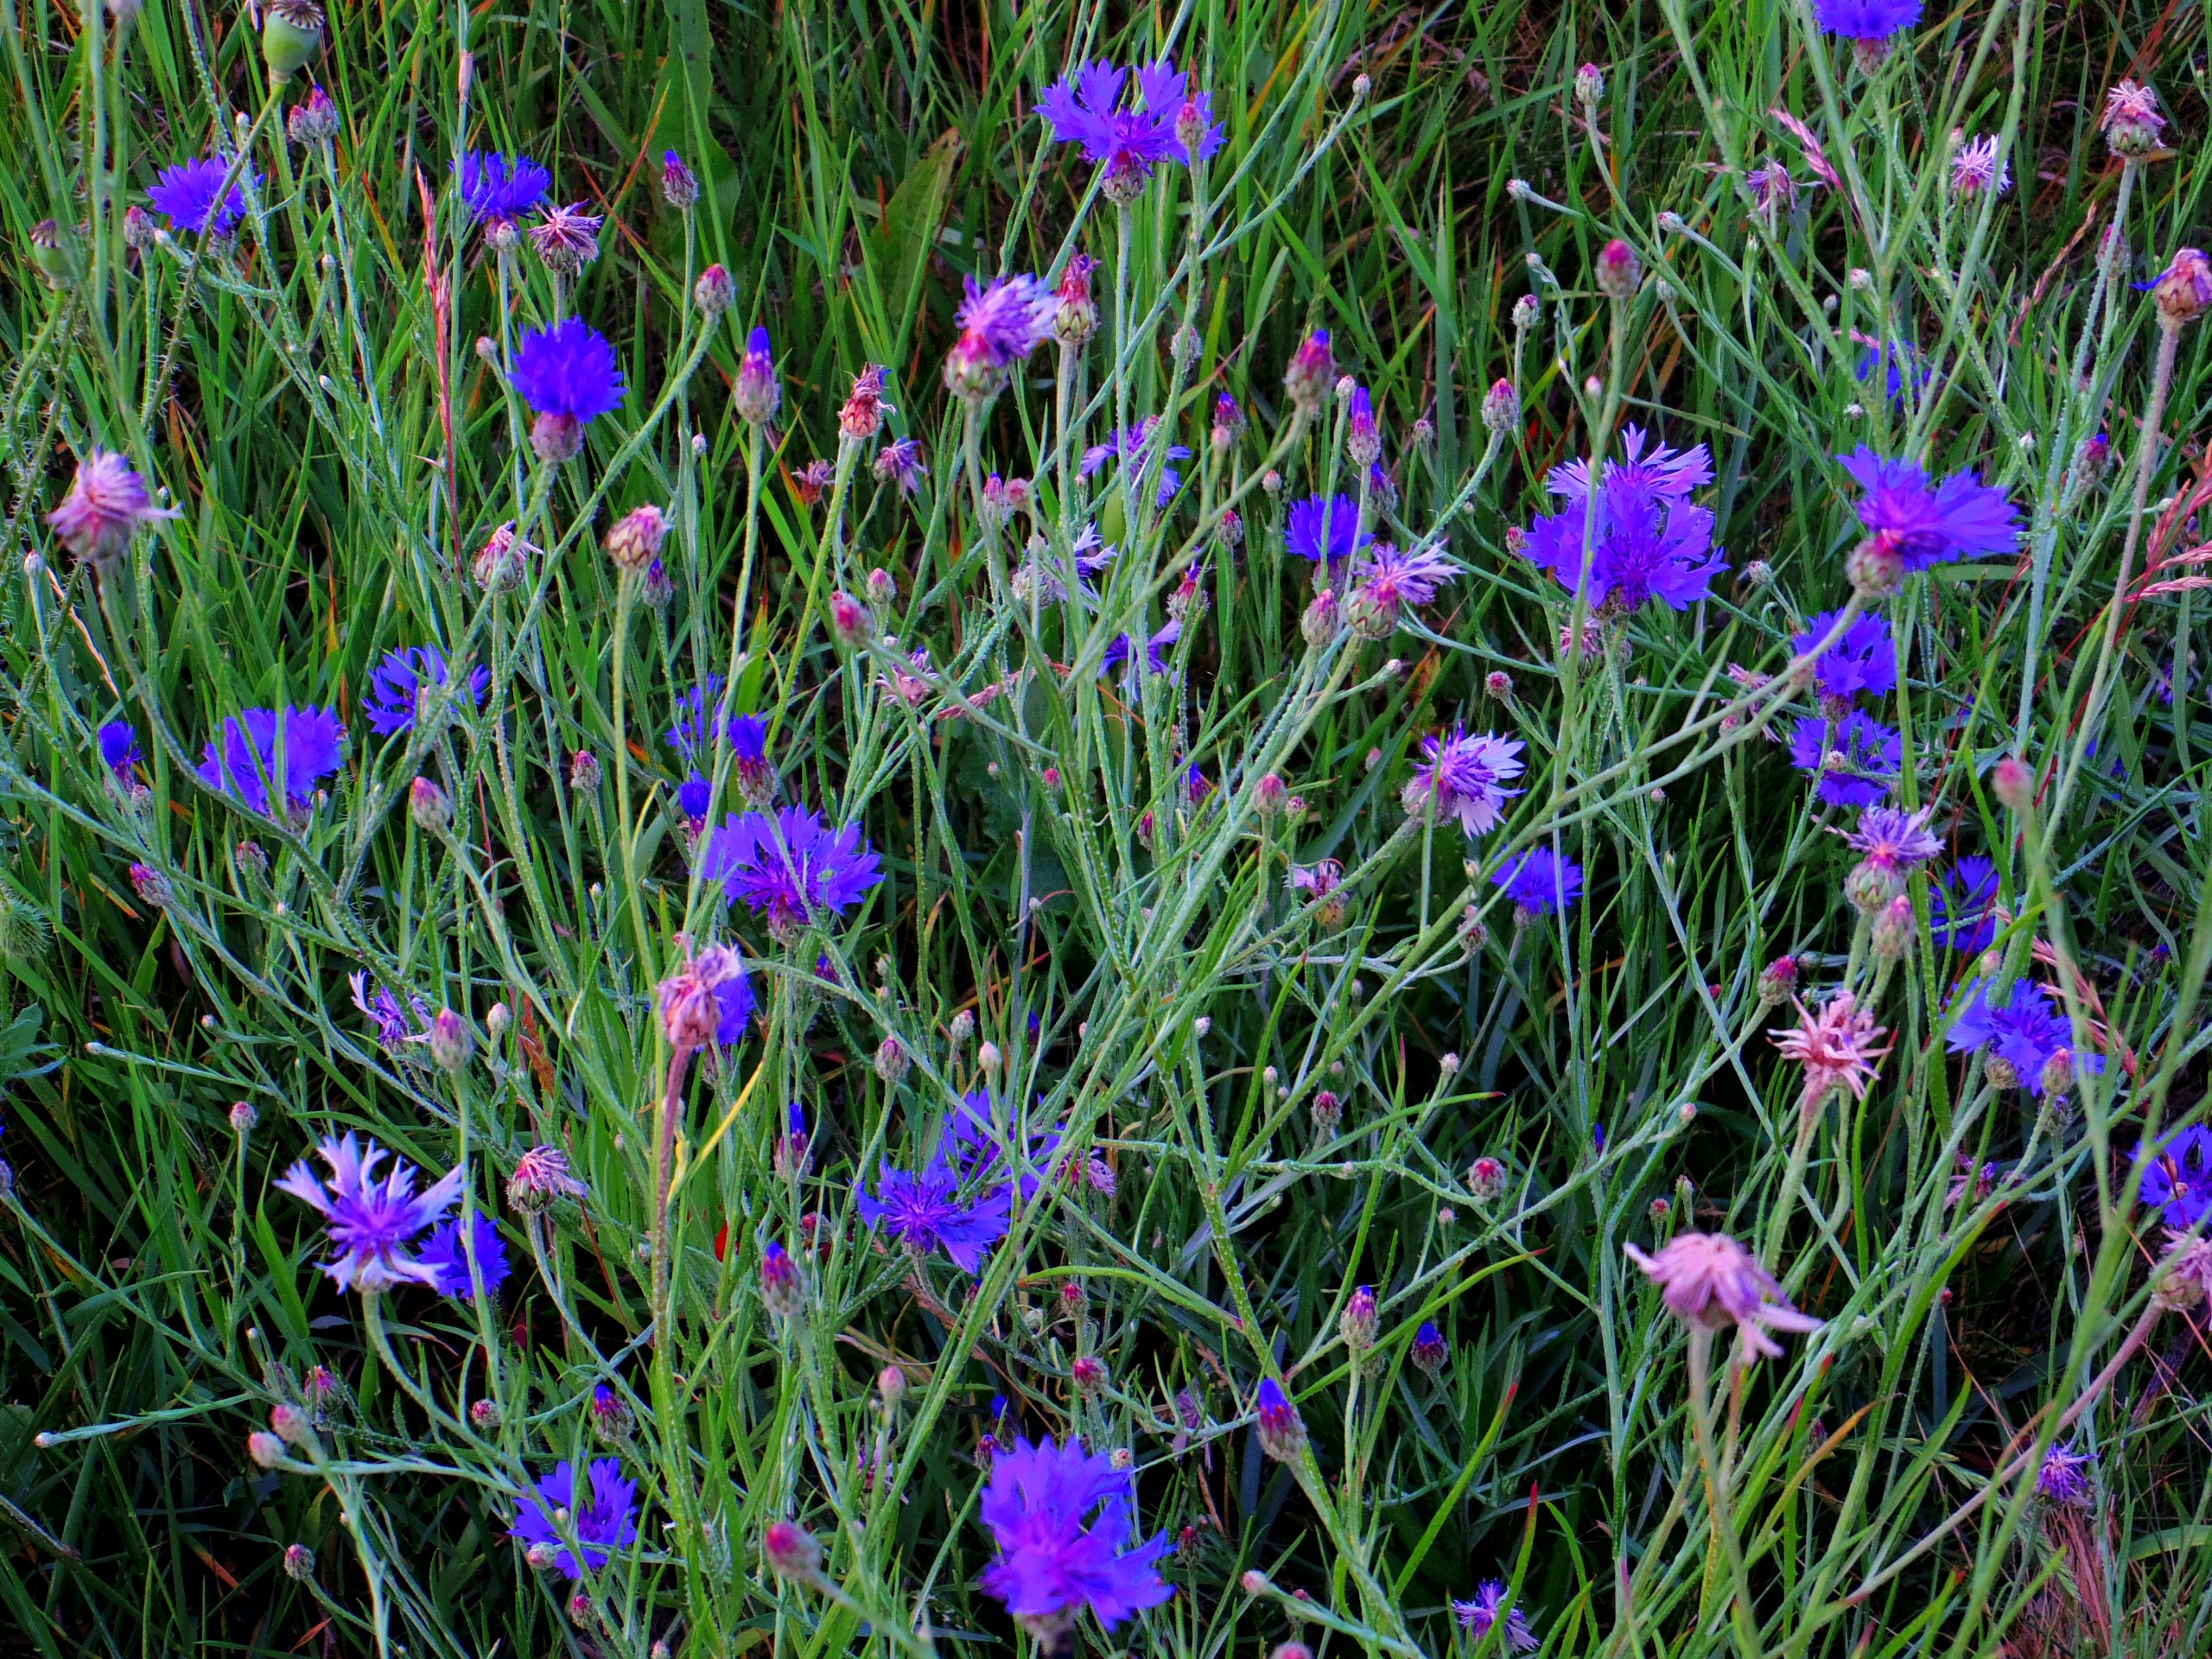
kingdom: Plantae
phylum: Tracheophyta
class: Magnoliopsida
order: Asterales
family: Asteraceae
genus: Centaurea
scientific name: Centaurea cyanus
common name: Kornblomst
